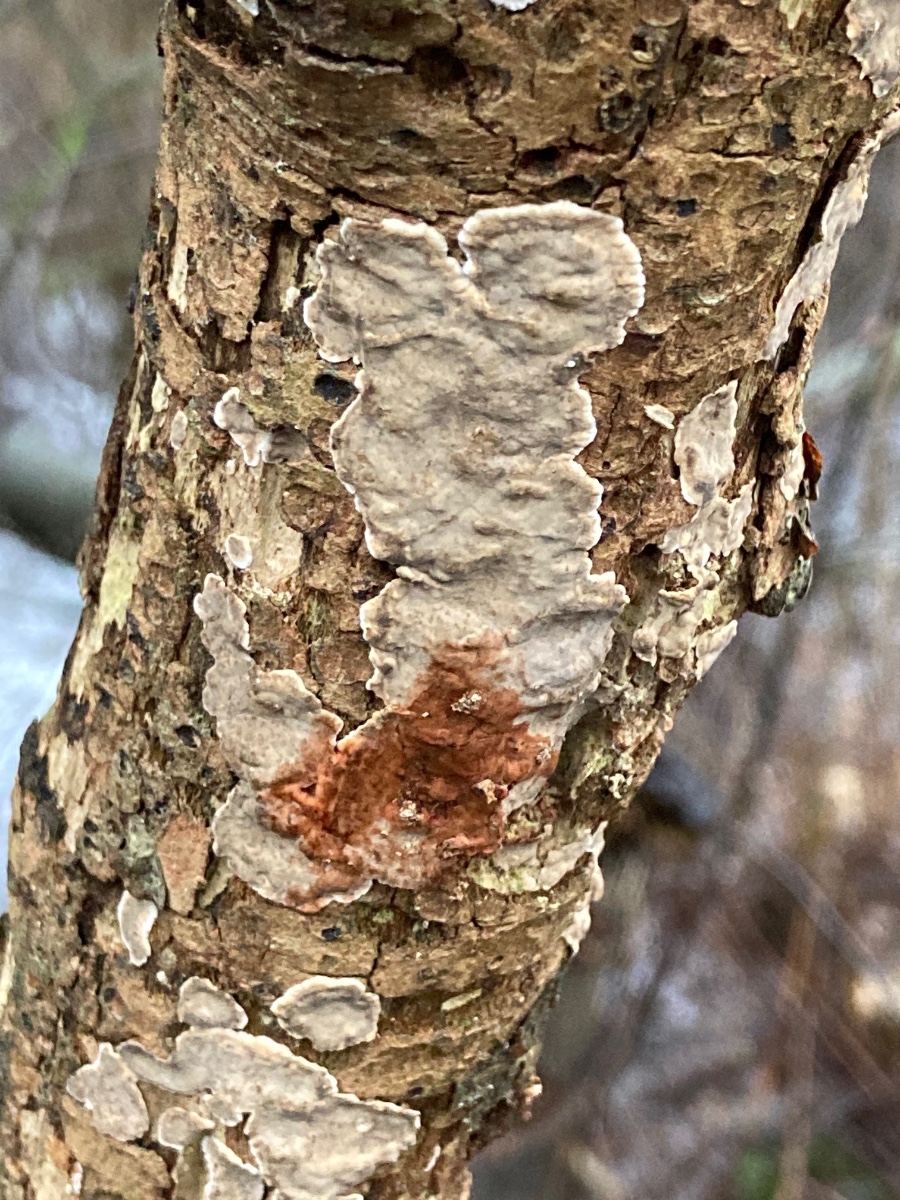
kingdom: Fungi
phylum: Basidiomycota
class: Agaricomycetes
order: Russulales
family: Stereaceae
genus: Stereum
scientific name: Stereum rugosum
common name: rynket lædersvamp
